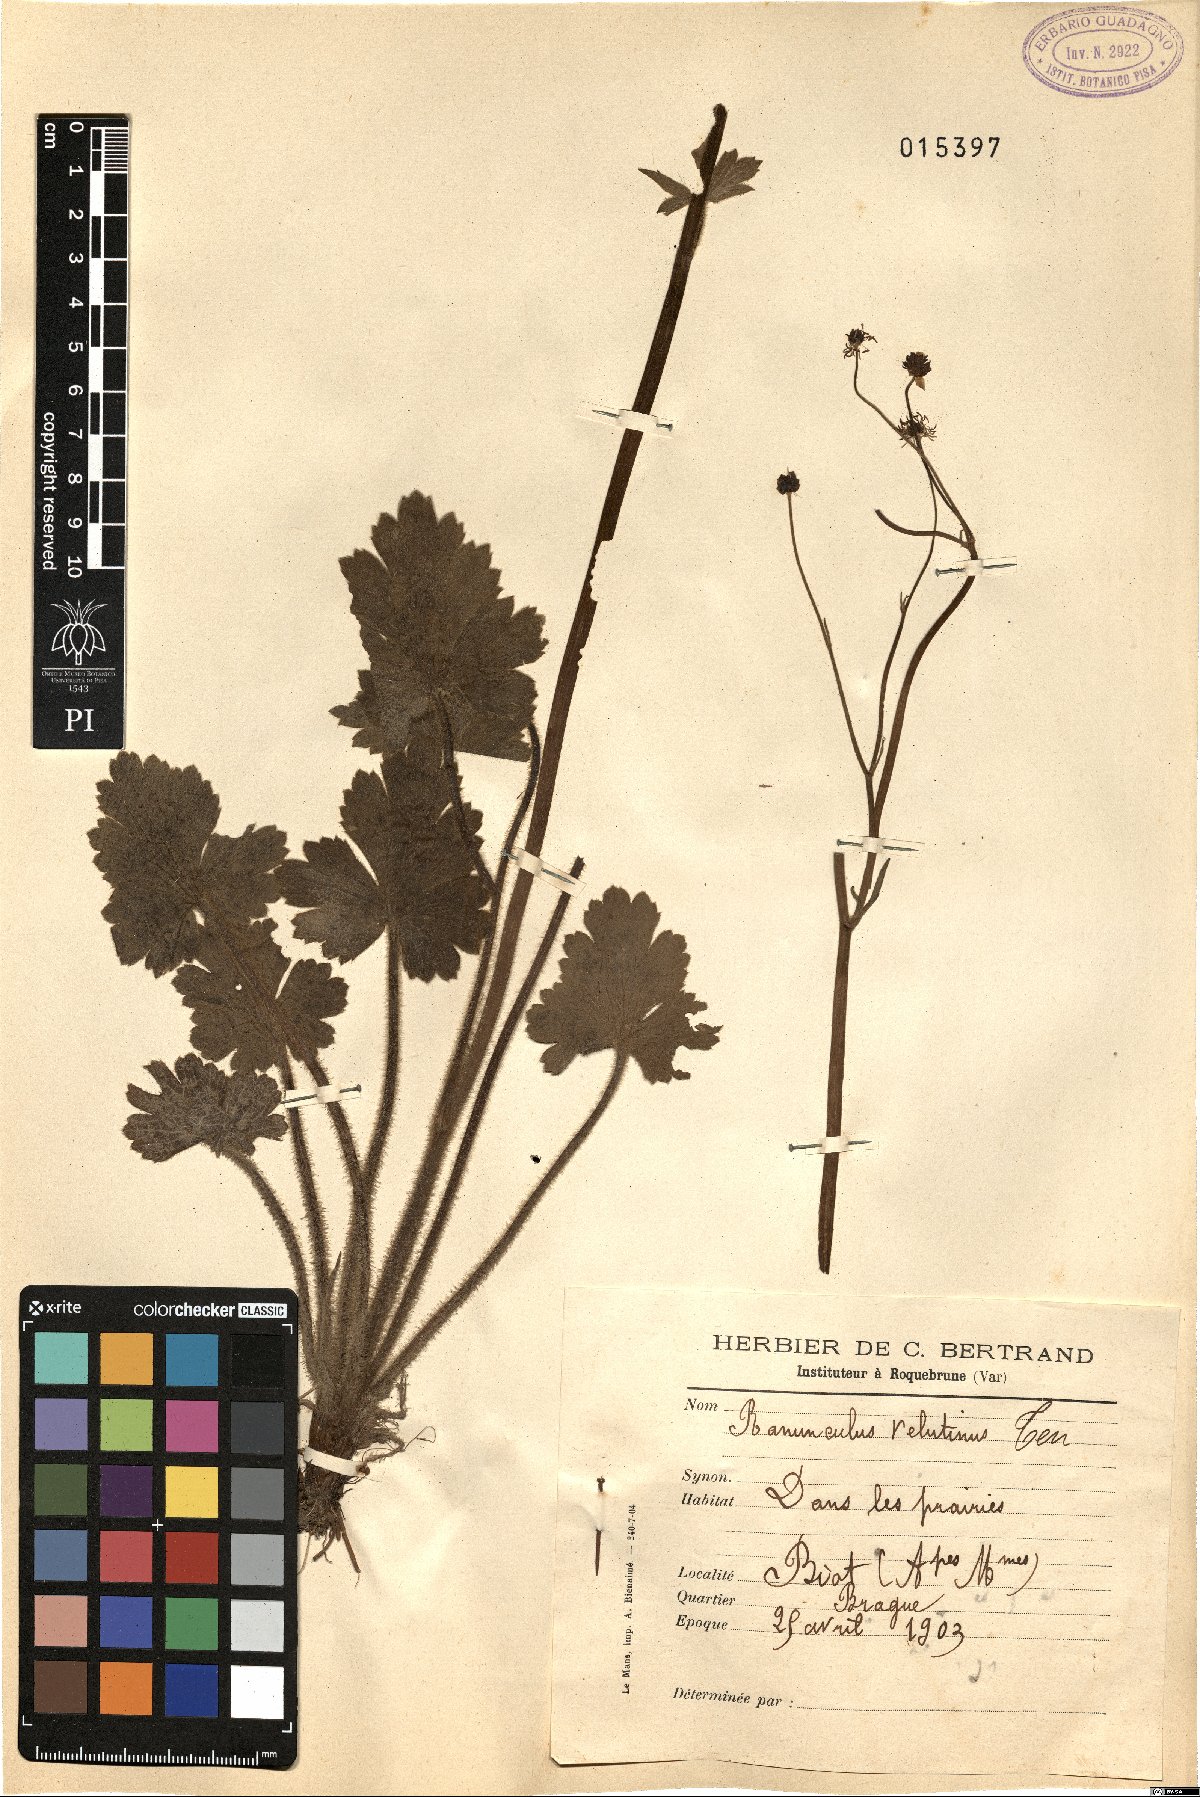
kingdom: Plantae
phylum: Tracheophyta
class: Magnoliopsida
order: Ranunculales
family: Ranunculaceae
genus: Ranunculus
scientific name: Ranunculus velutinus
